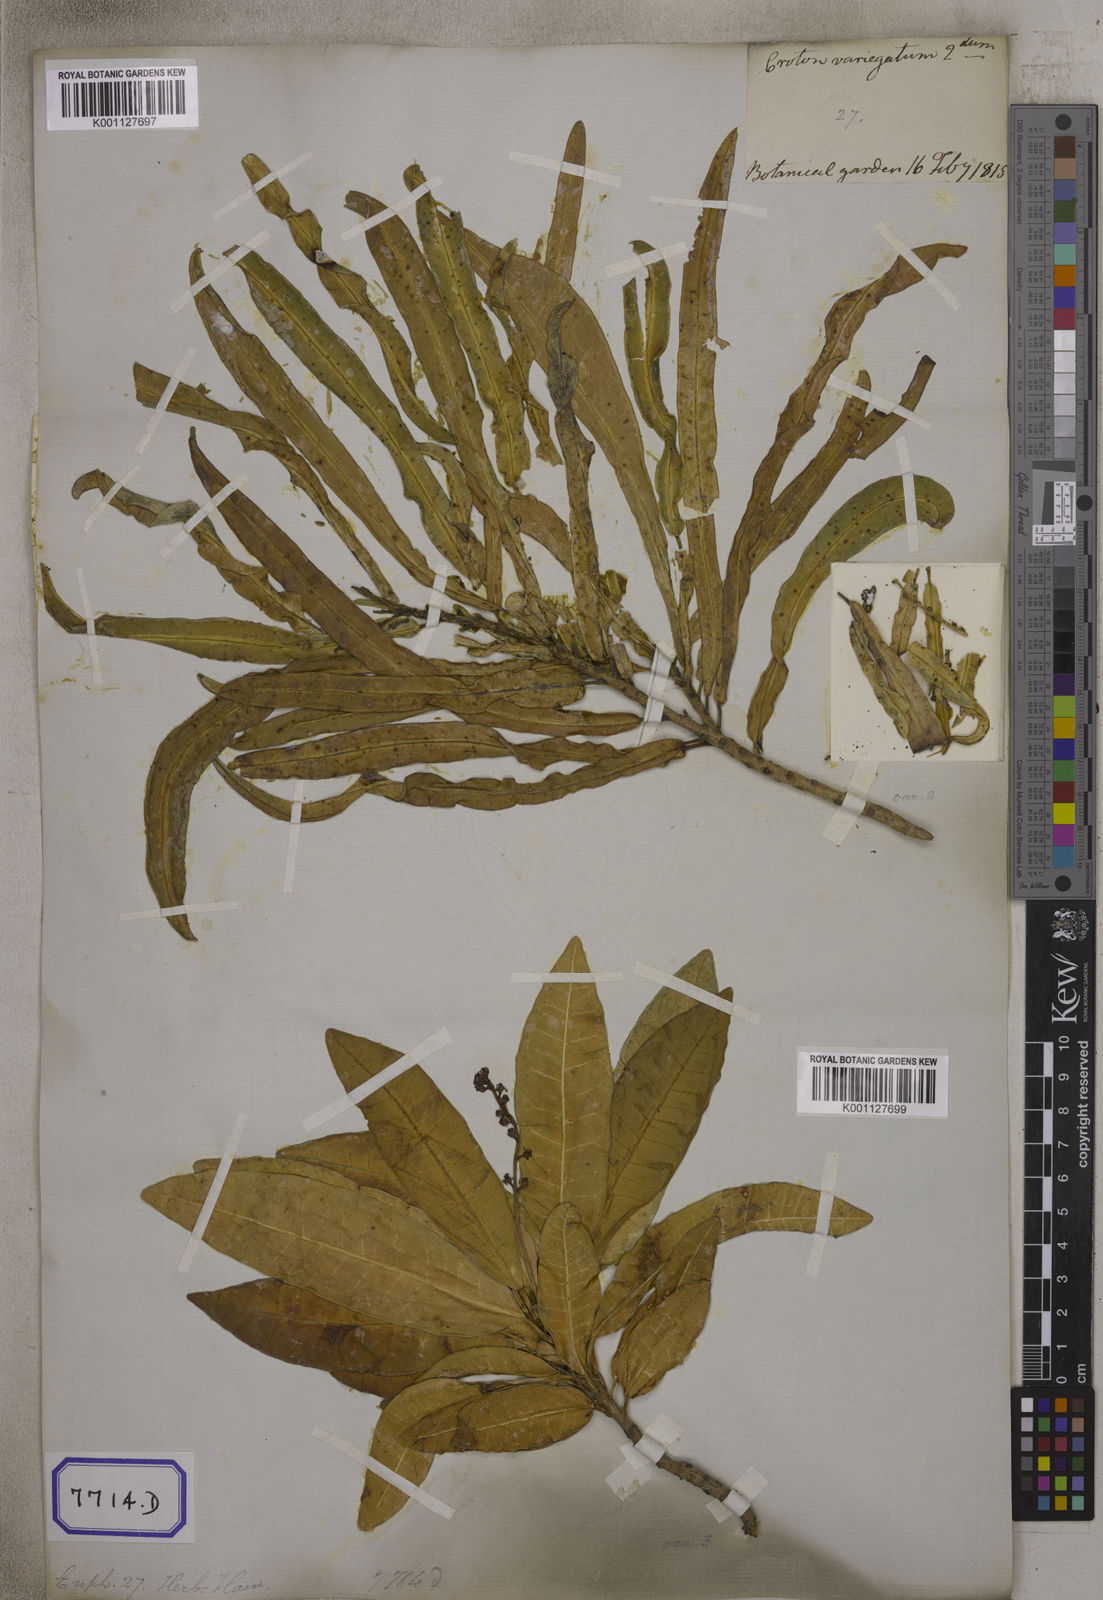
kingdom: Plantae
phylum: Tracheophyta
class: Magnoliopsida
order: Malpighiales
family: Euphorbiaceae
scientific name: Euphorbiaceae
